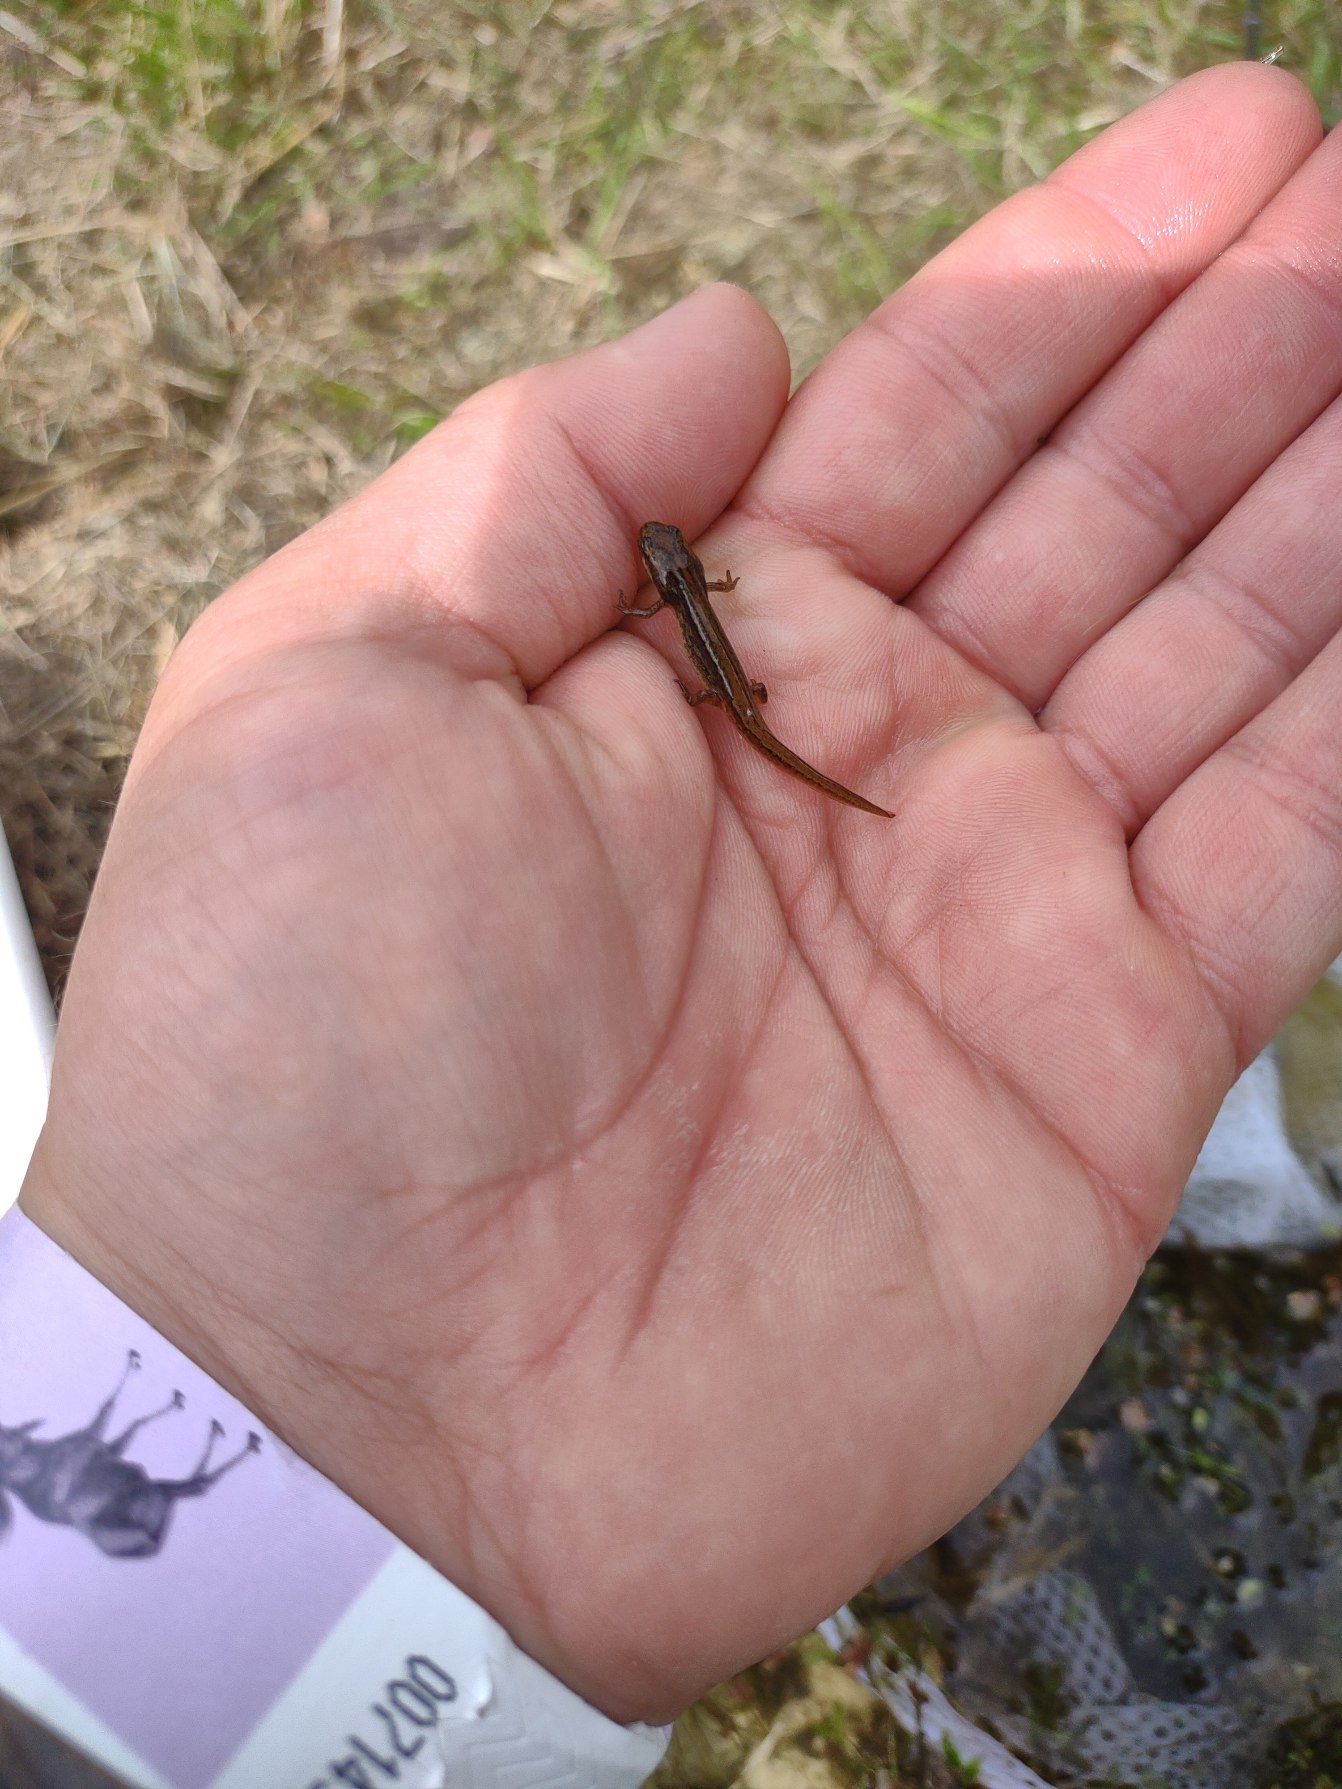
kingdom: Animalia
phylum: Chordata
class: Amphibia
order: Caudata
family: Salamandridae
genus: Lissotriton
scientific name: Lissotriton vulgaris
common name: Lille vandsalamander
